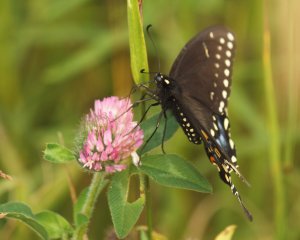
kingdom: Animalia
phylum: Arthropoda
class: Insecta
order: Lepidoptera
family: Papilionidae
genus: Papilio
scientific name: Papilio polyxenes
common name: Black Swallowtail
